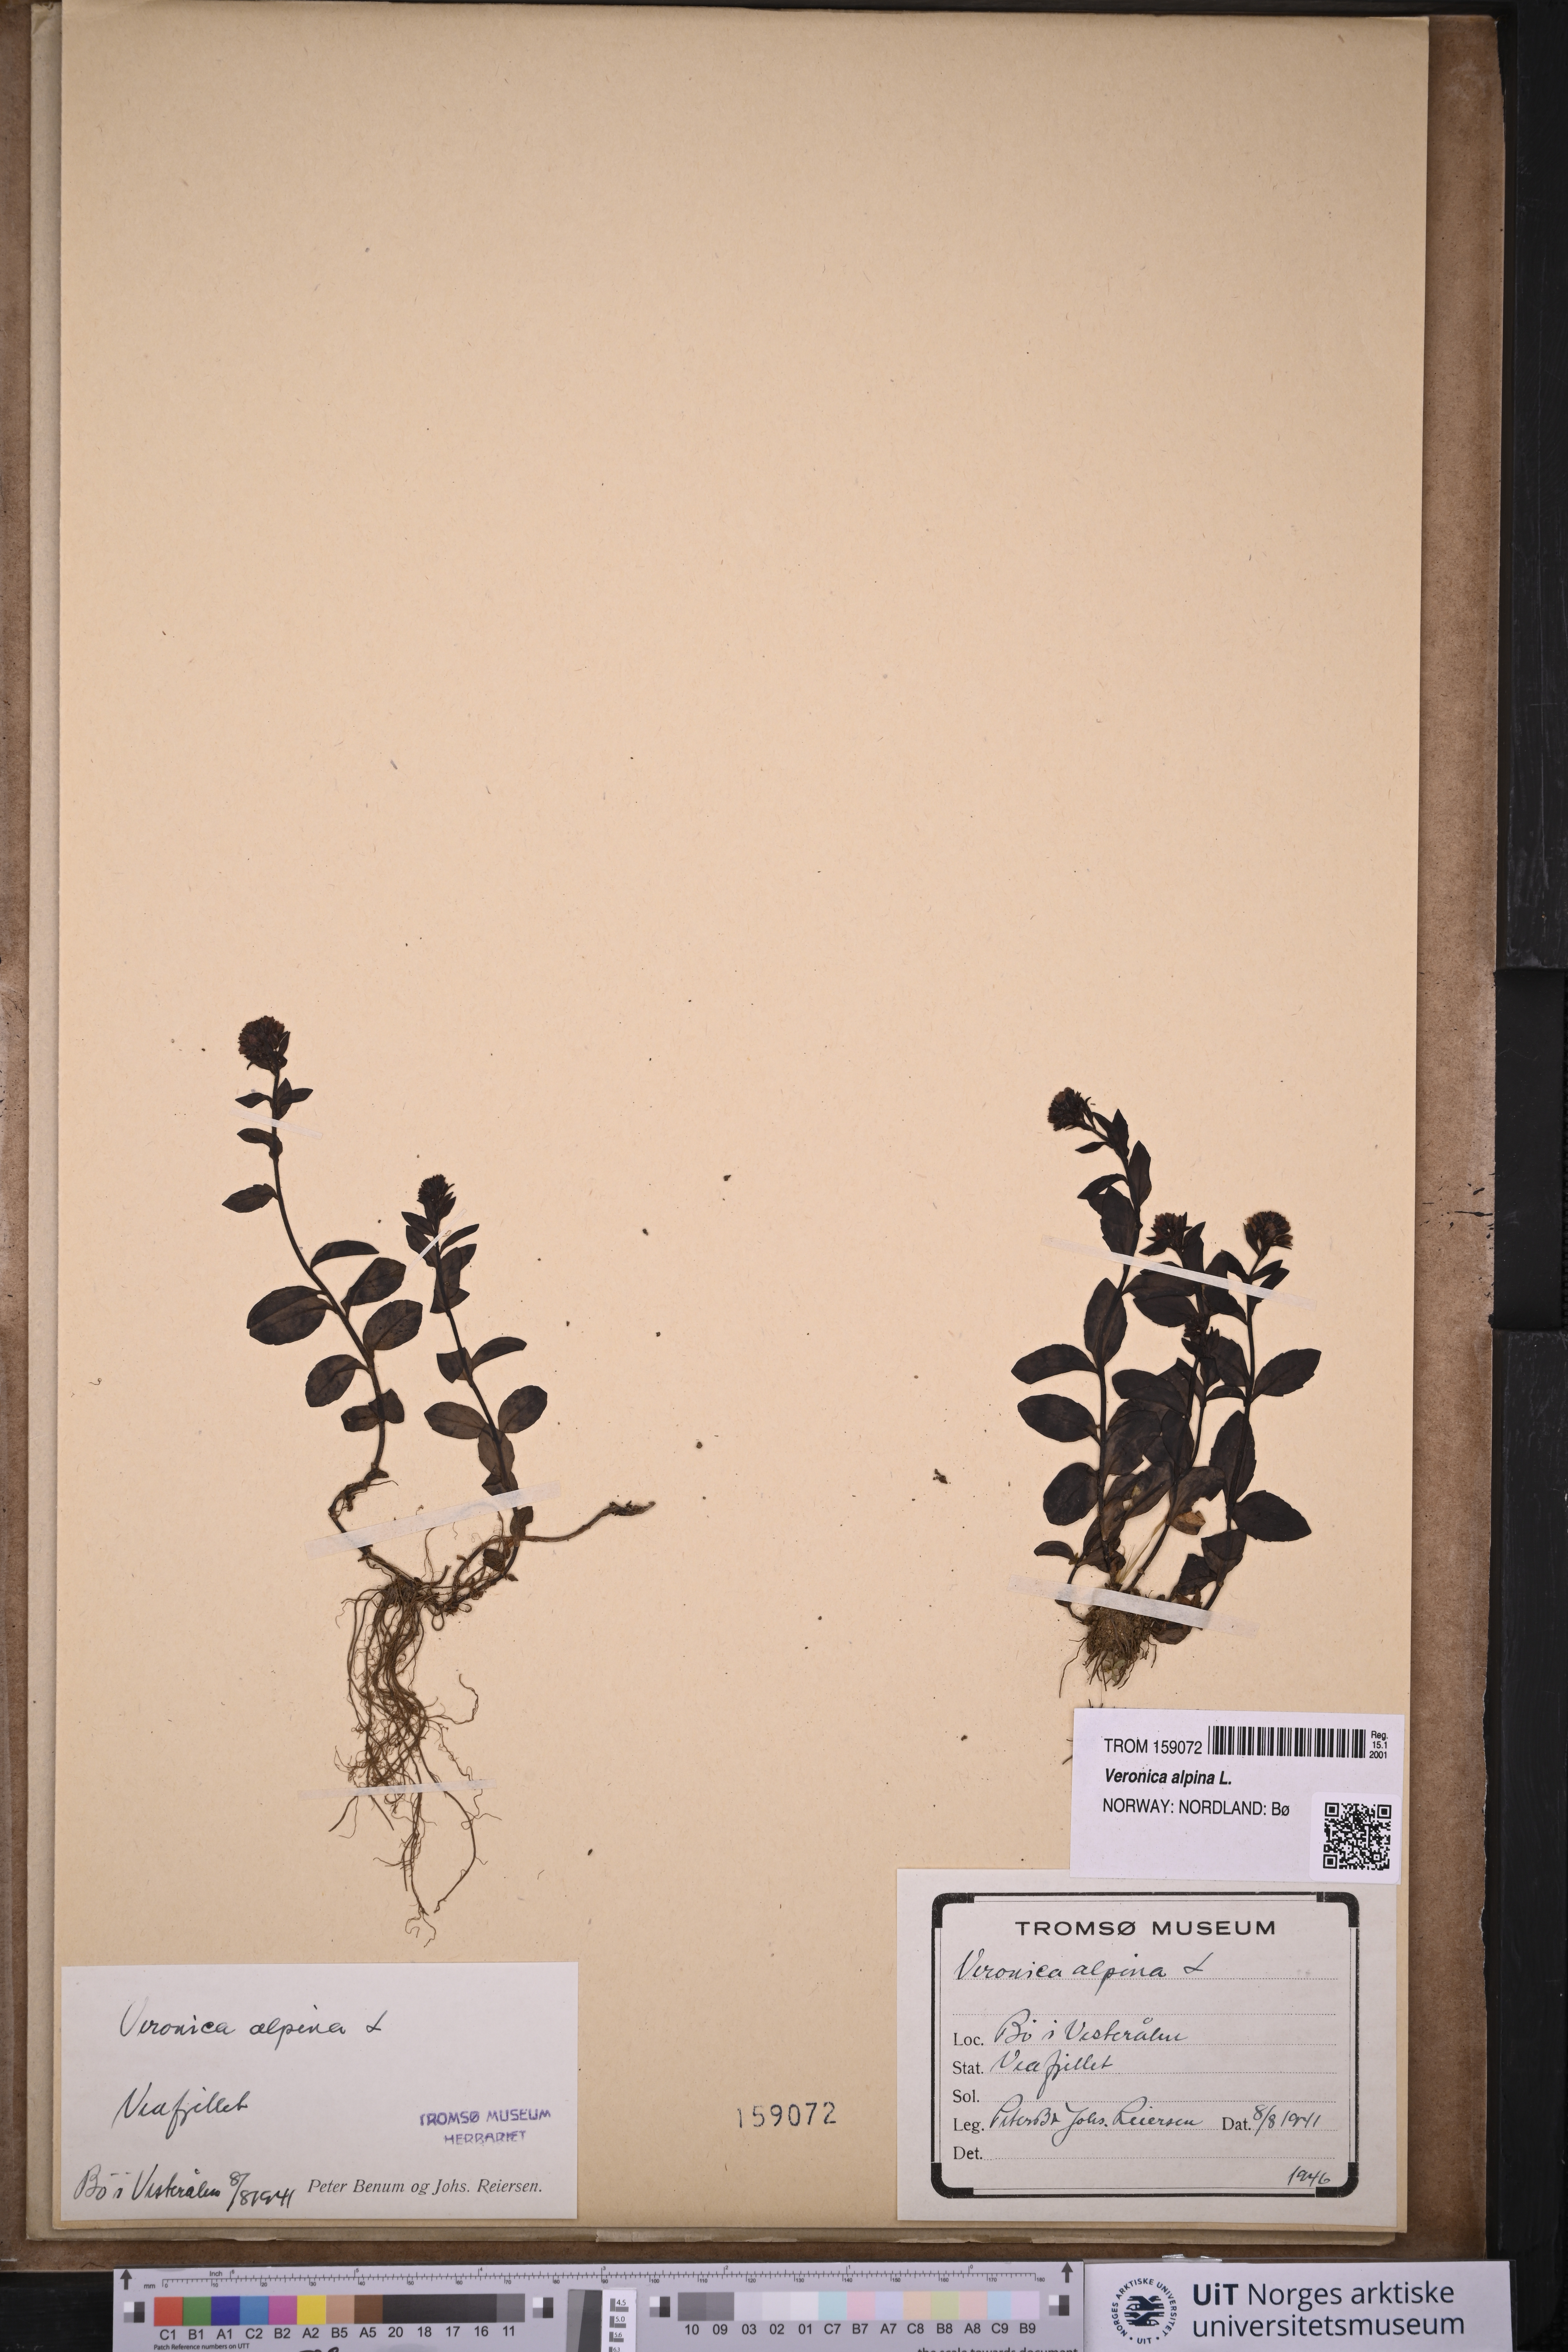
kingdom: Plantae
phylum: Tracheophyta
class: Magnoliopsida
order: Lamiales
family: Plantaginaceae
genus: Veronica
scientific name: Veronica alpina
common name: Alpine speedwell
